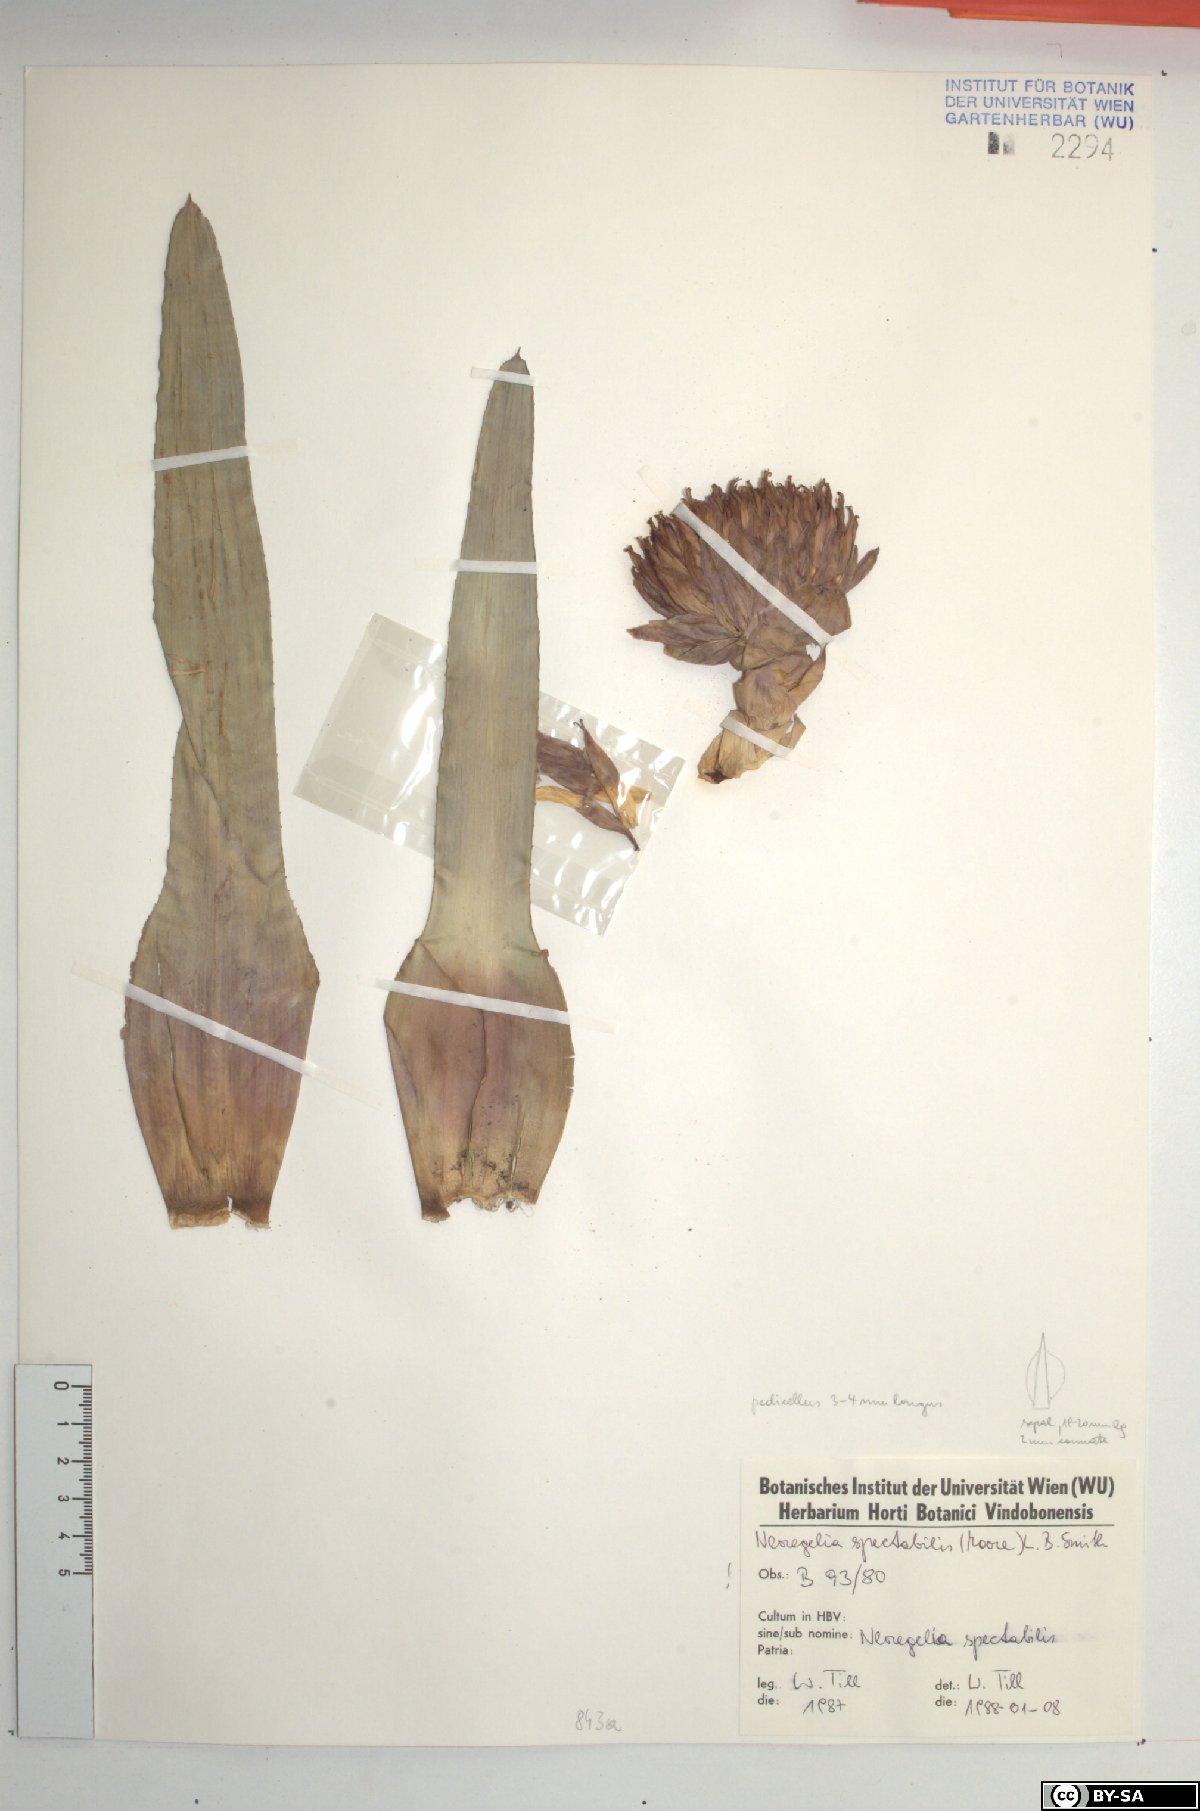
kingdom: Plantae
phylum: Tracheophyta
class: Liliopsida
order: Poales
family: Bromeliaceae
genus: Neoregelia
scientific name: Neoregelia spectabilis
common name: Painted-fingernail
